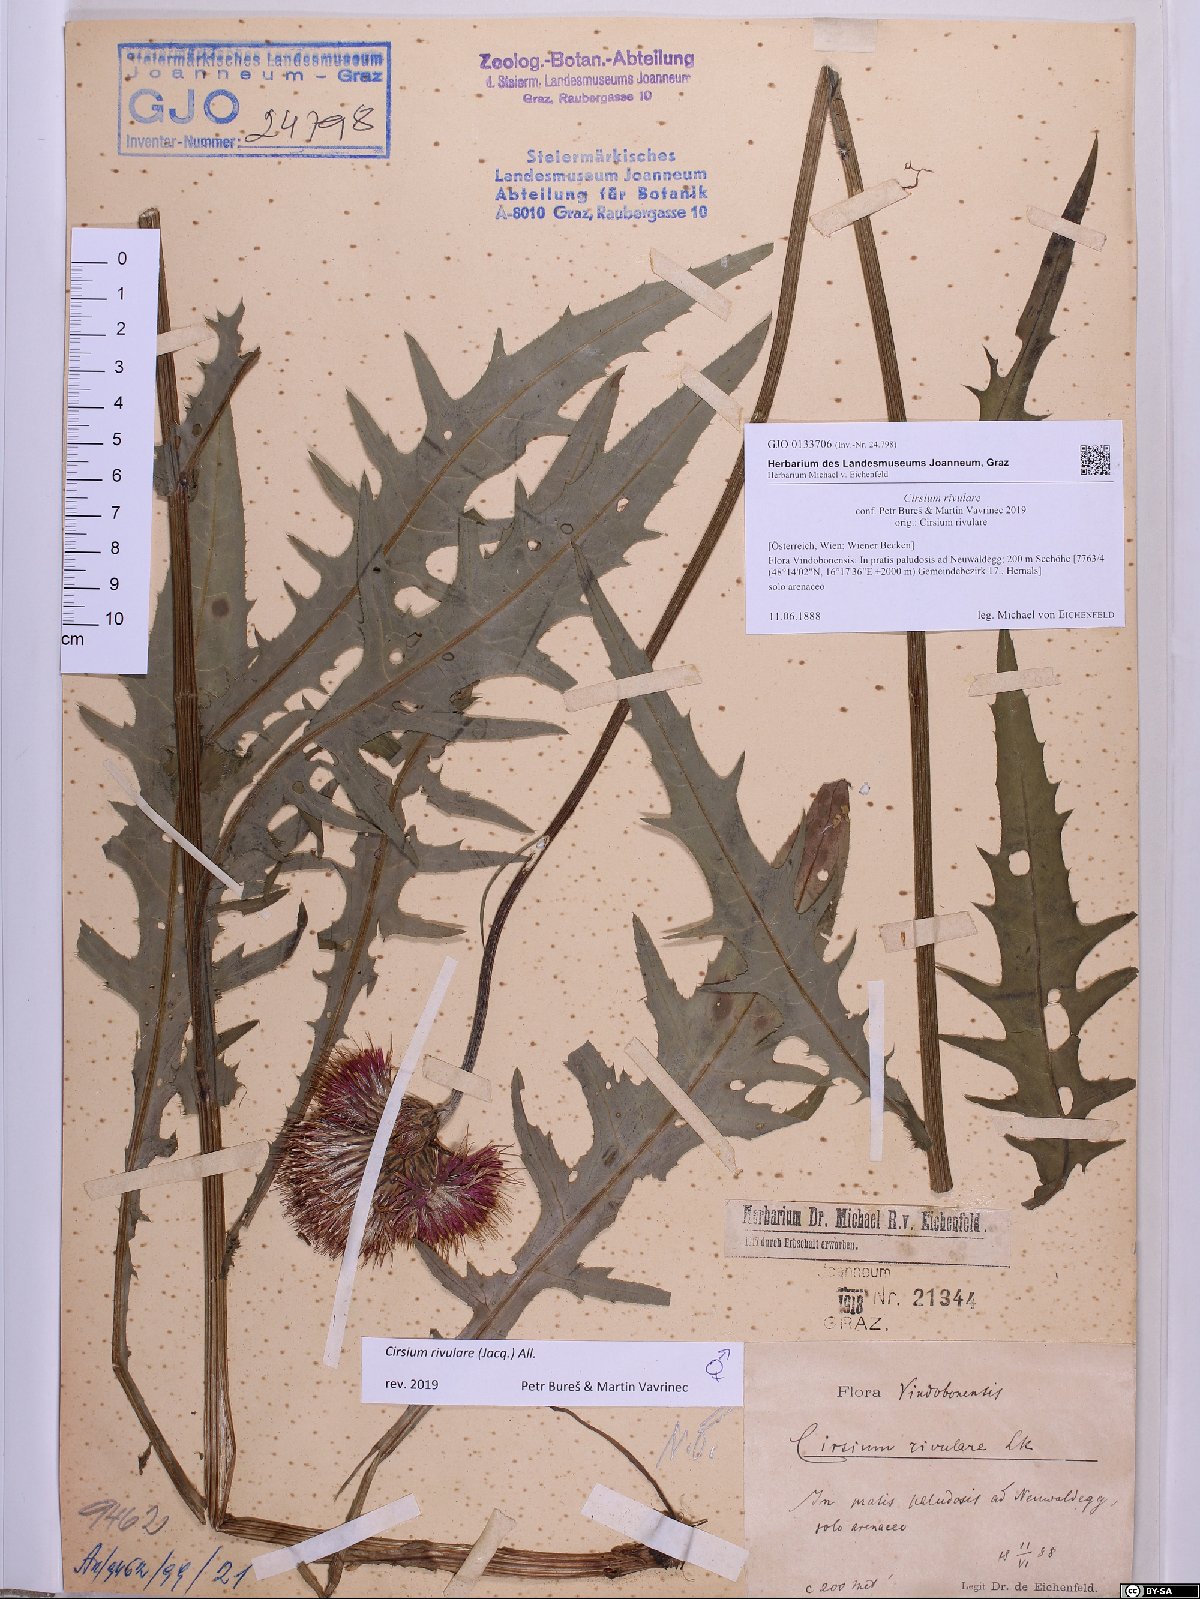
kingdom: Plantae
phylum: Tracheophyta
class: Magnoliopsida
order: Asterales
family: Asteraceae
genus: Cirsium
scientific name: Cirsium rivulare
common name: Brook thistle
